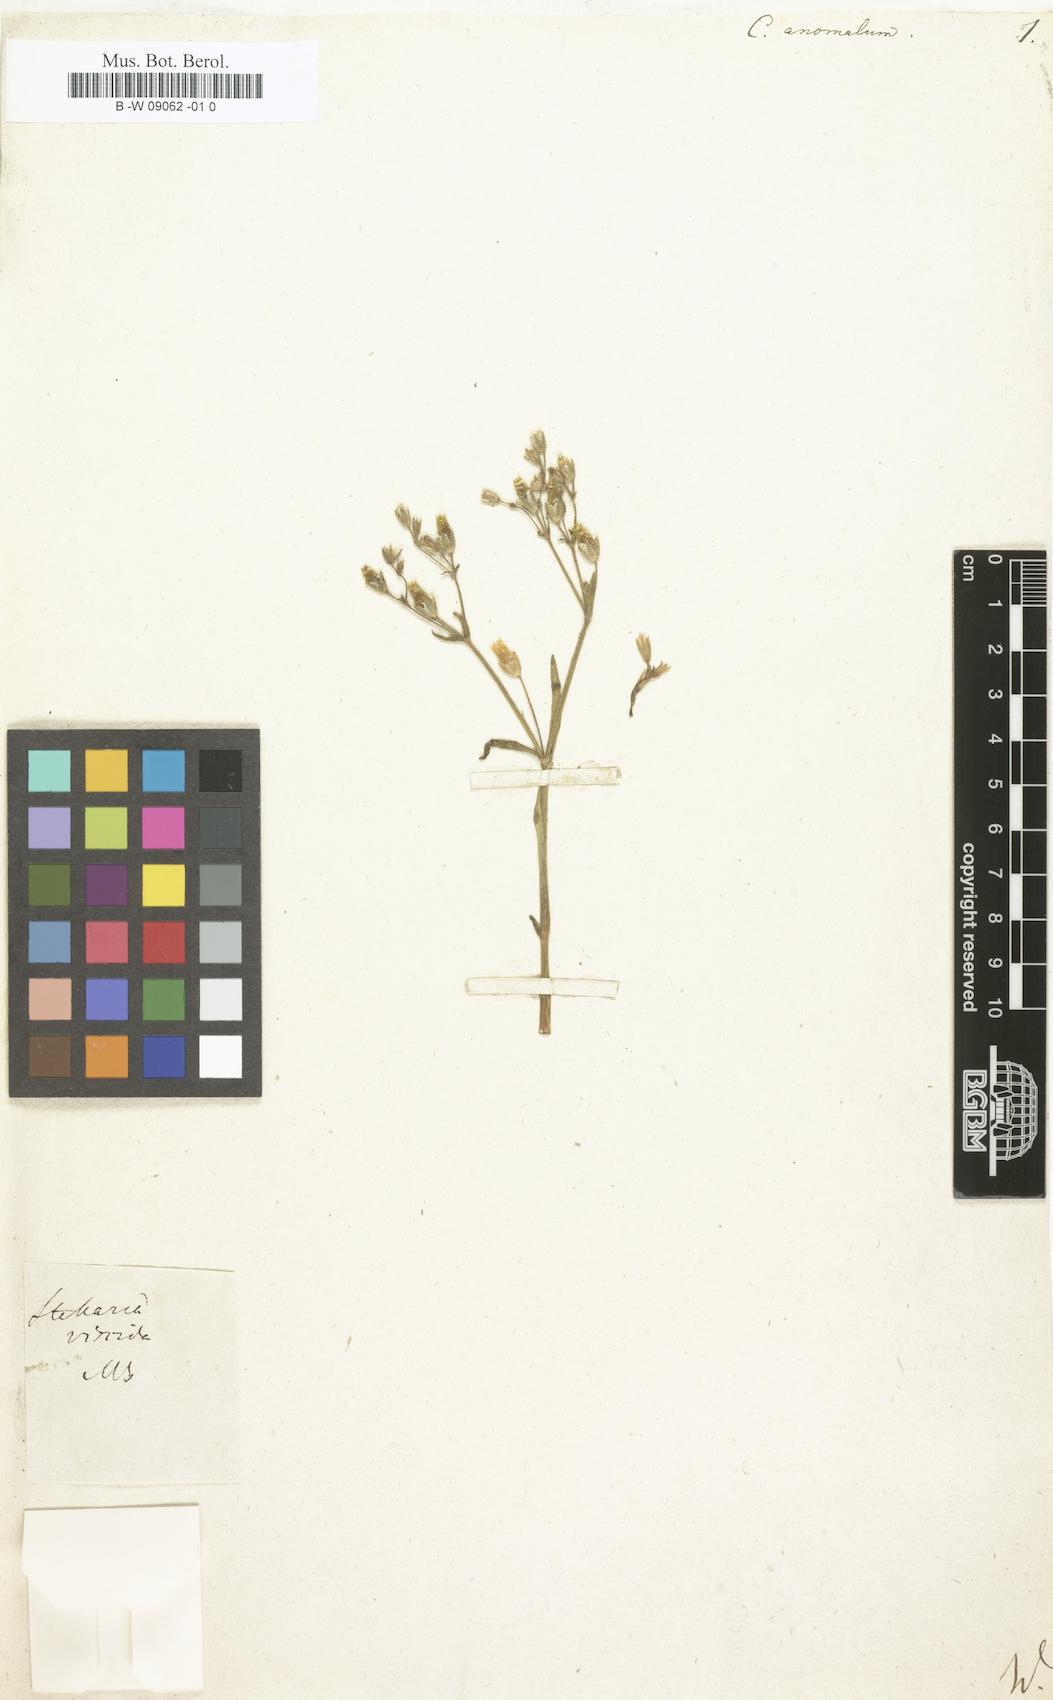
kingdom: Plantae
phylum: Tracheophyta
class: Magnoliopsida
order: Caryophyllales
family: Caryophyllaceae
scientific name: Caryophyllaceae
